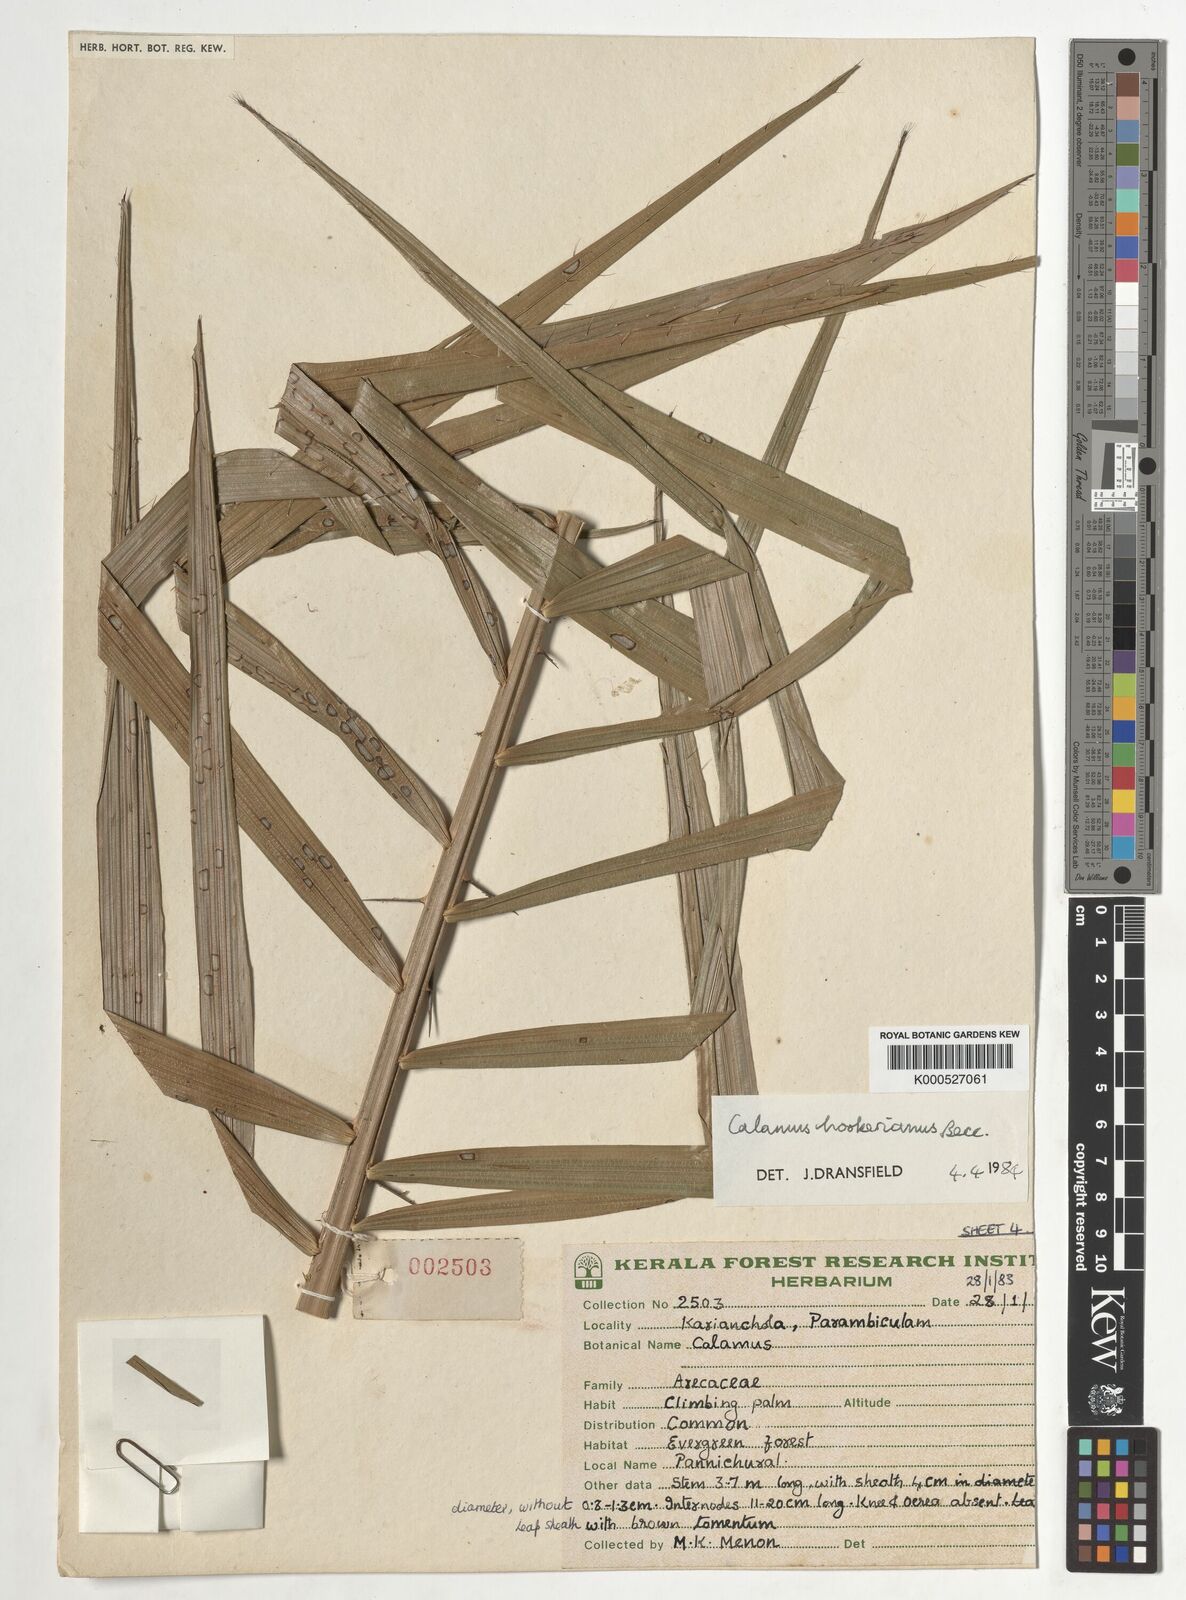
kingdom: Plantae
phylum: Tracheophyta
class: Liliopsida
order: Arecales
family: Arecaceae
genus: Calamus
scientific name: Calamus hookerianus
